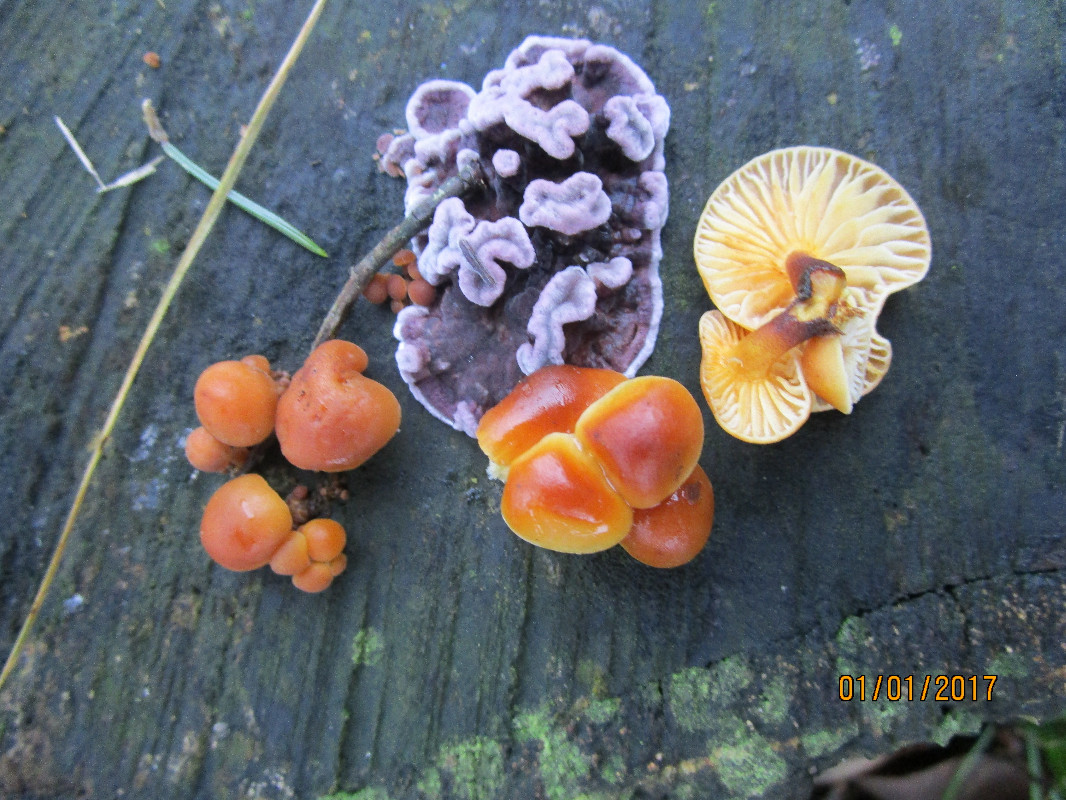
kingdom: Fungi
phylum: Basidiomycota
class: Agaricomycetes
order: Agaricales
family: Cyphellaceae
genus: Chondrostereum
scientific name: Chondrostereum purpureum
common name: purpurlædersvamp
